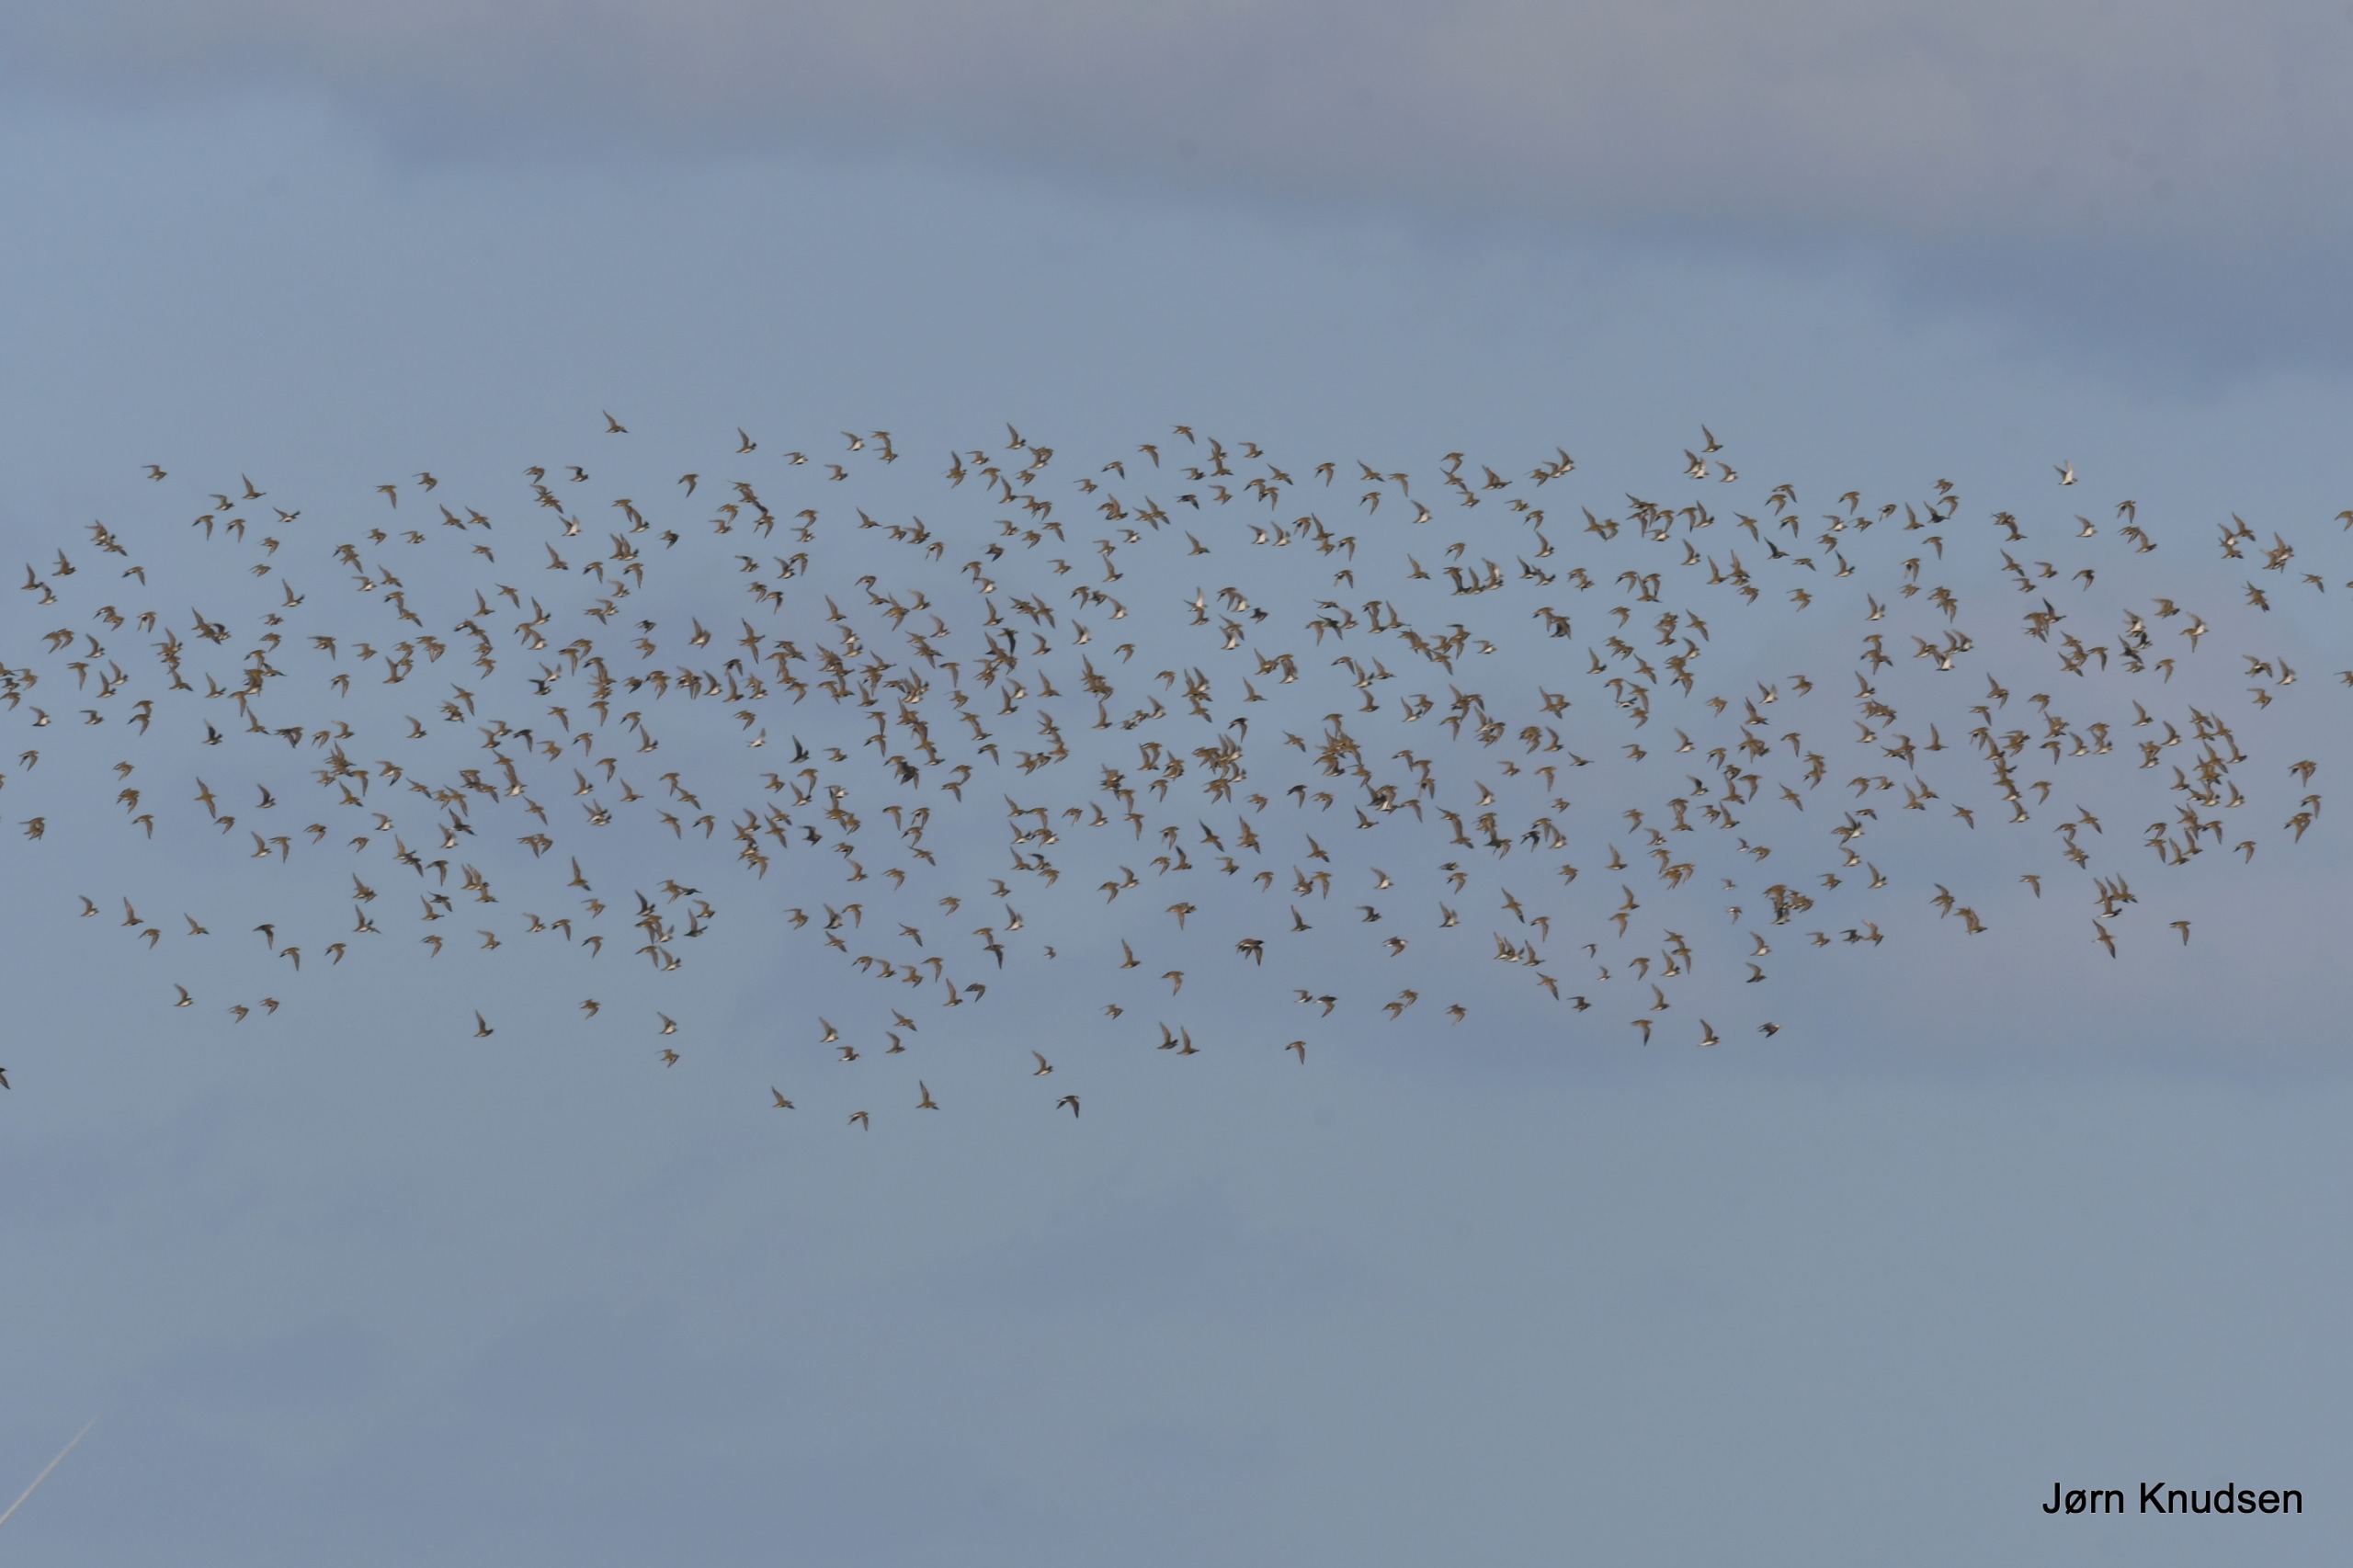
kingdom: Animalia
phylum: Chordata
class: Aves
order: Charadriiformes
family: Charadriidae
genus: Pluvialis
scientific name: Pluvialis apricaria
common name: Hjejle
